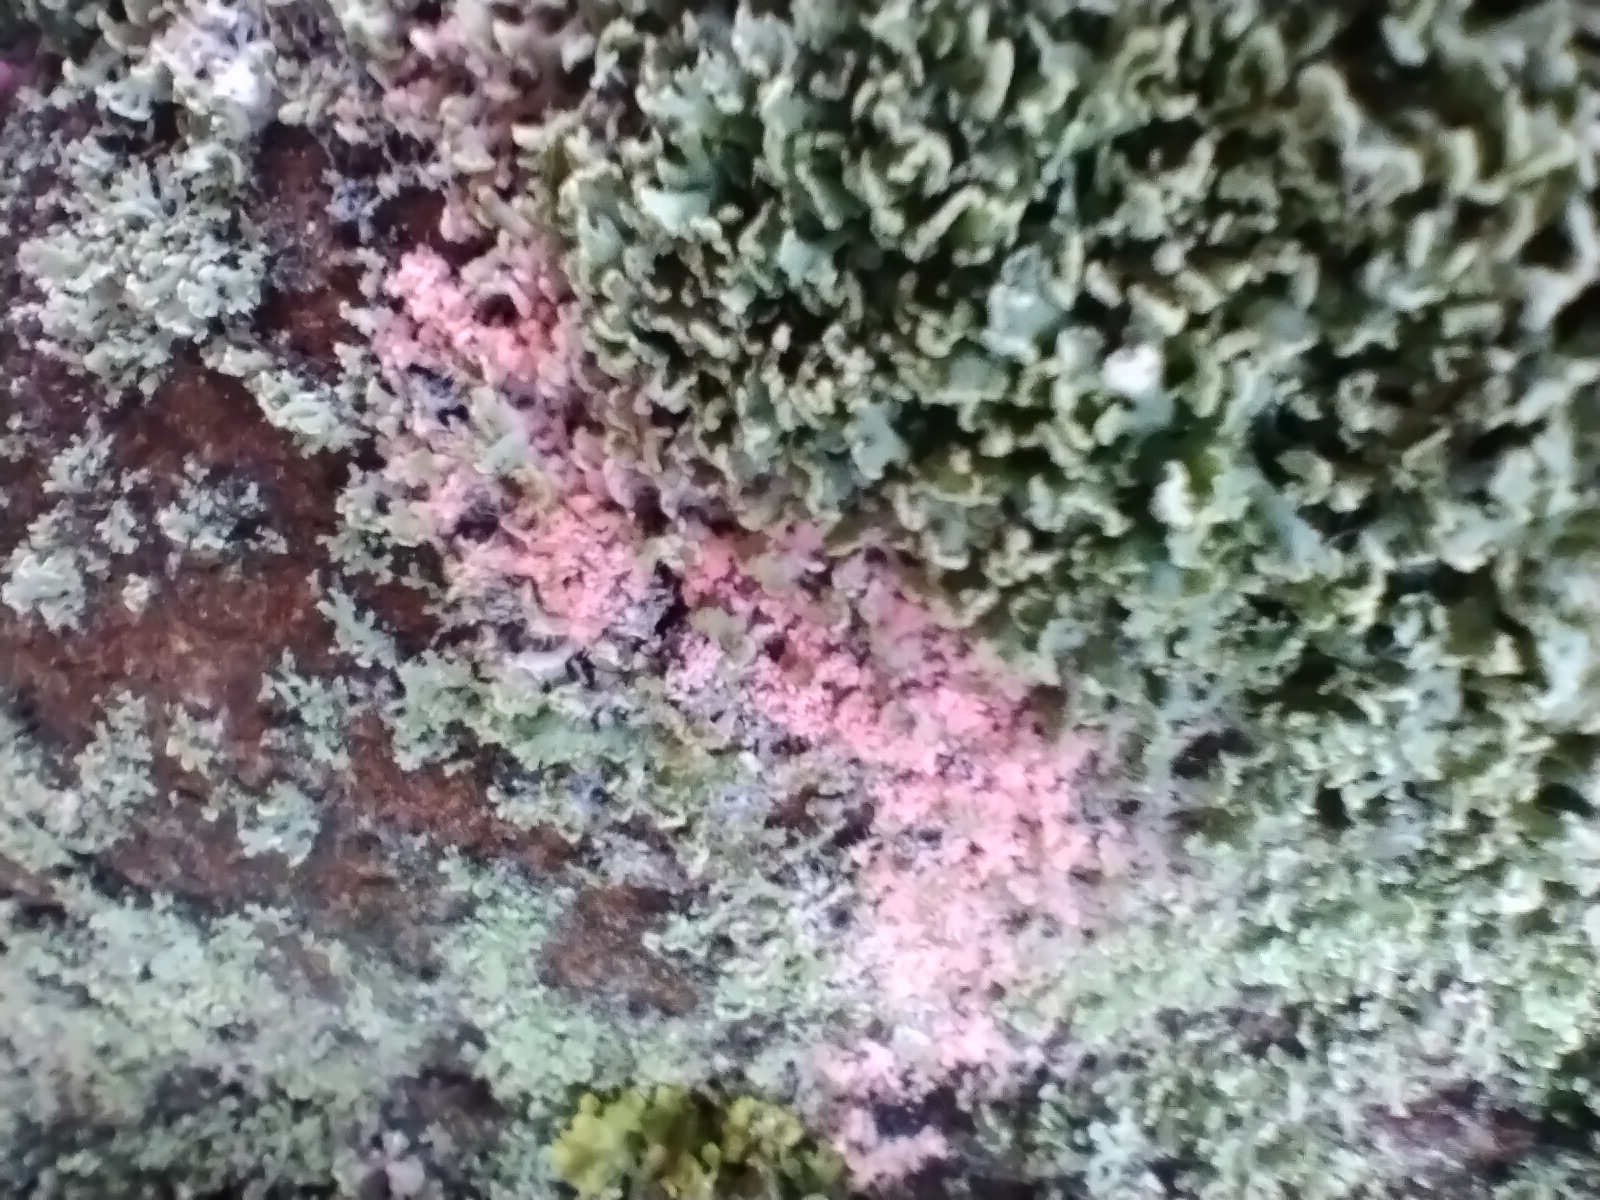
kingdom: Fungi
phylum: Basidiomycota
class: Agaricomycetes
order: Corticiales
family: Corticiaceae
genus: Erythricium
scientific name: Erythricium aurantiacum
